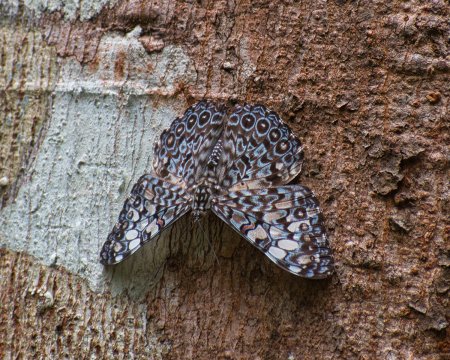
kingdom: Animalia
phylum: Arthropoda
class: Insecta
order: Lepidoptera
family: Nymphalidae
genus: Hamadryas
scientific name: Hamadryas feronia
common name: Variable Cracker
